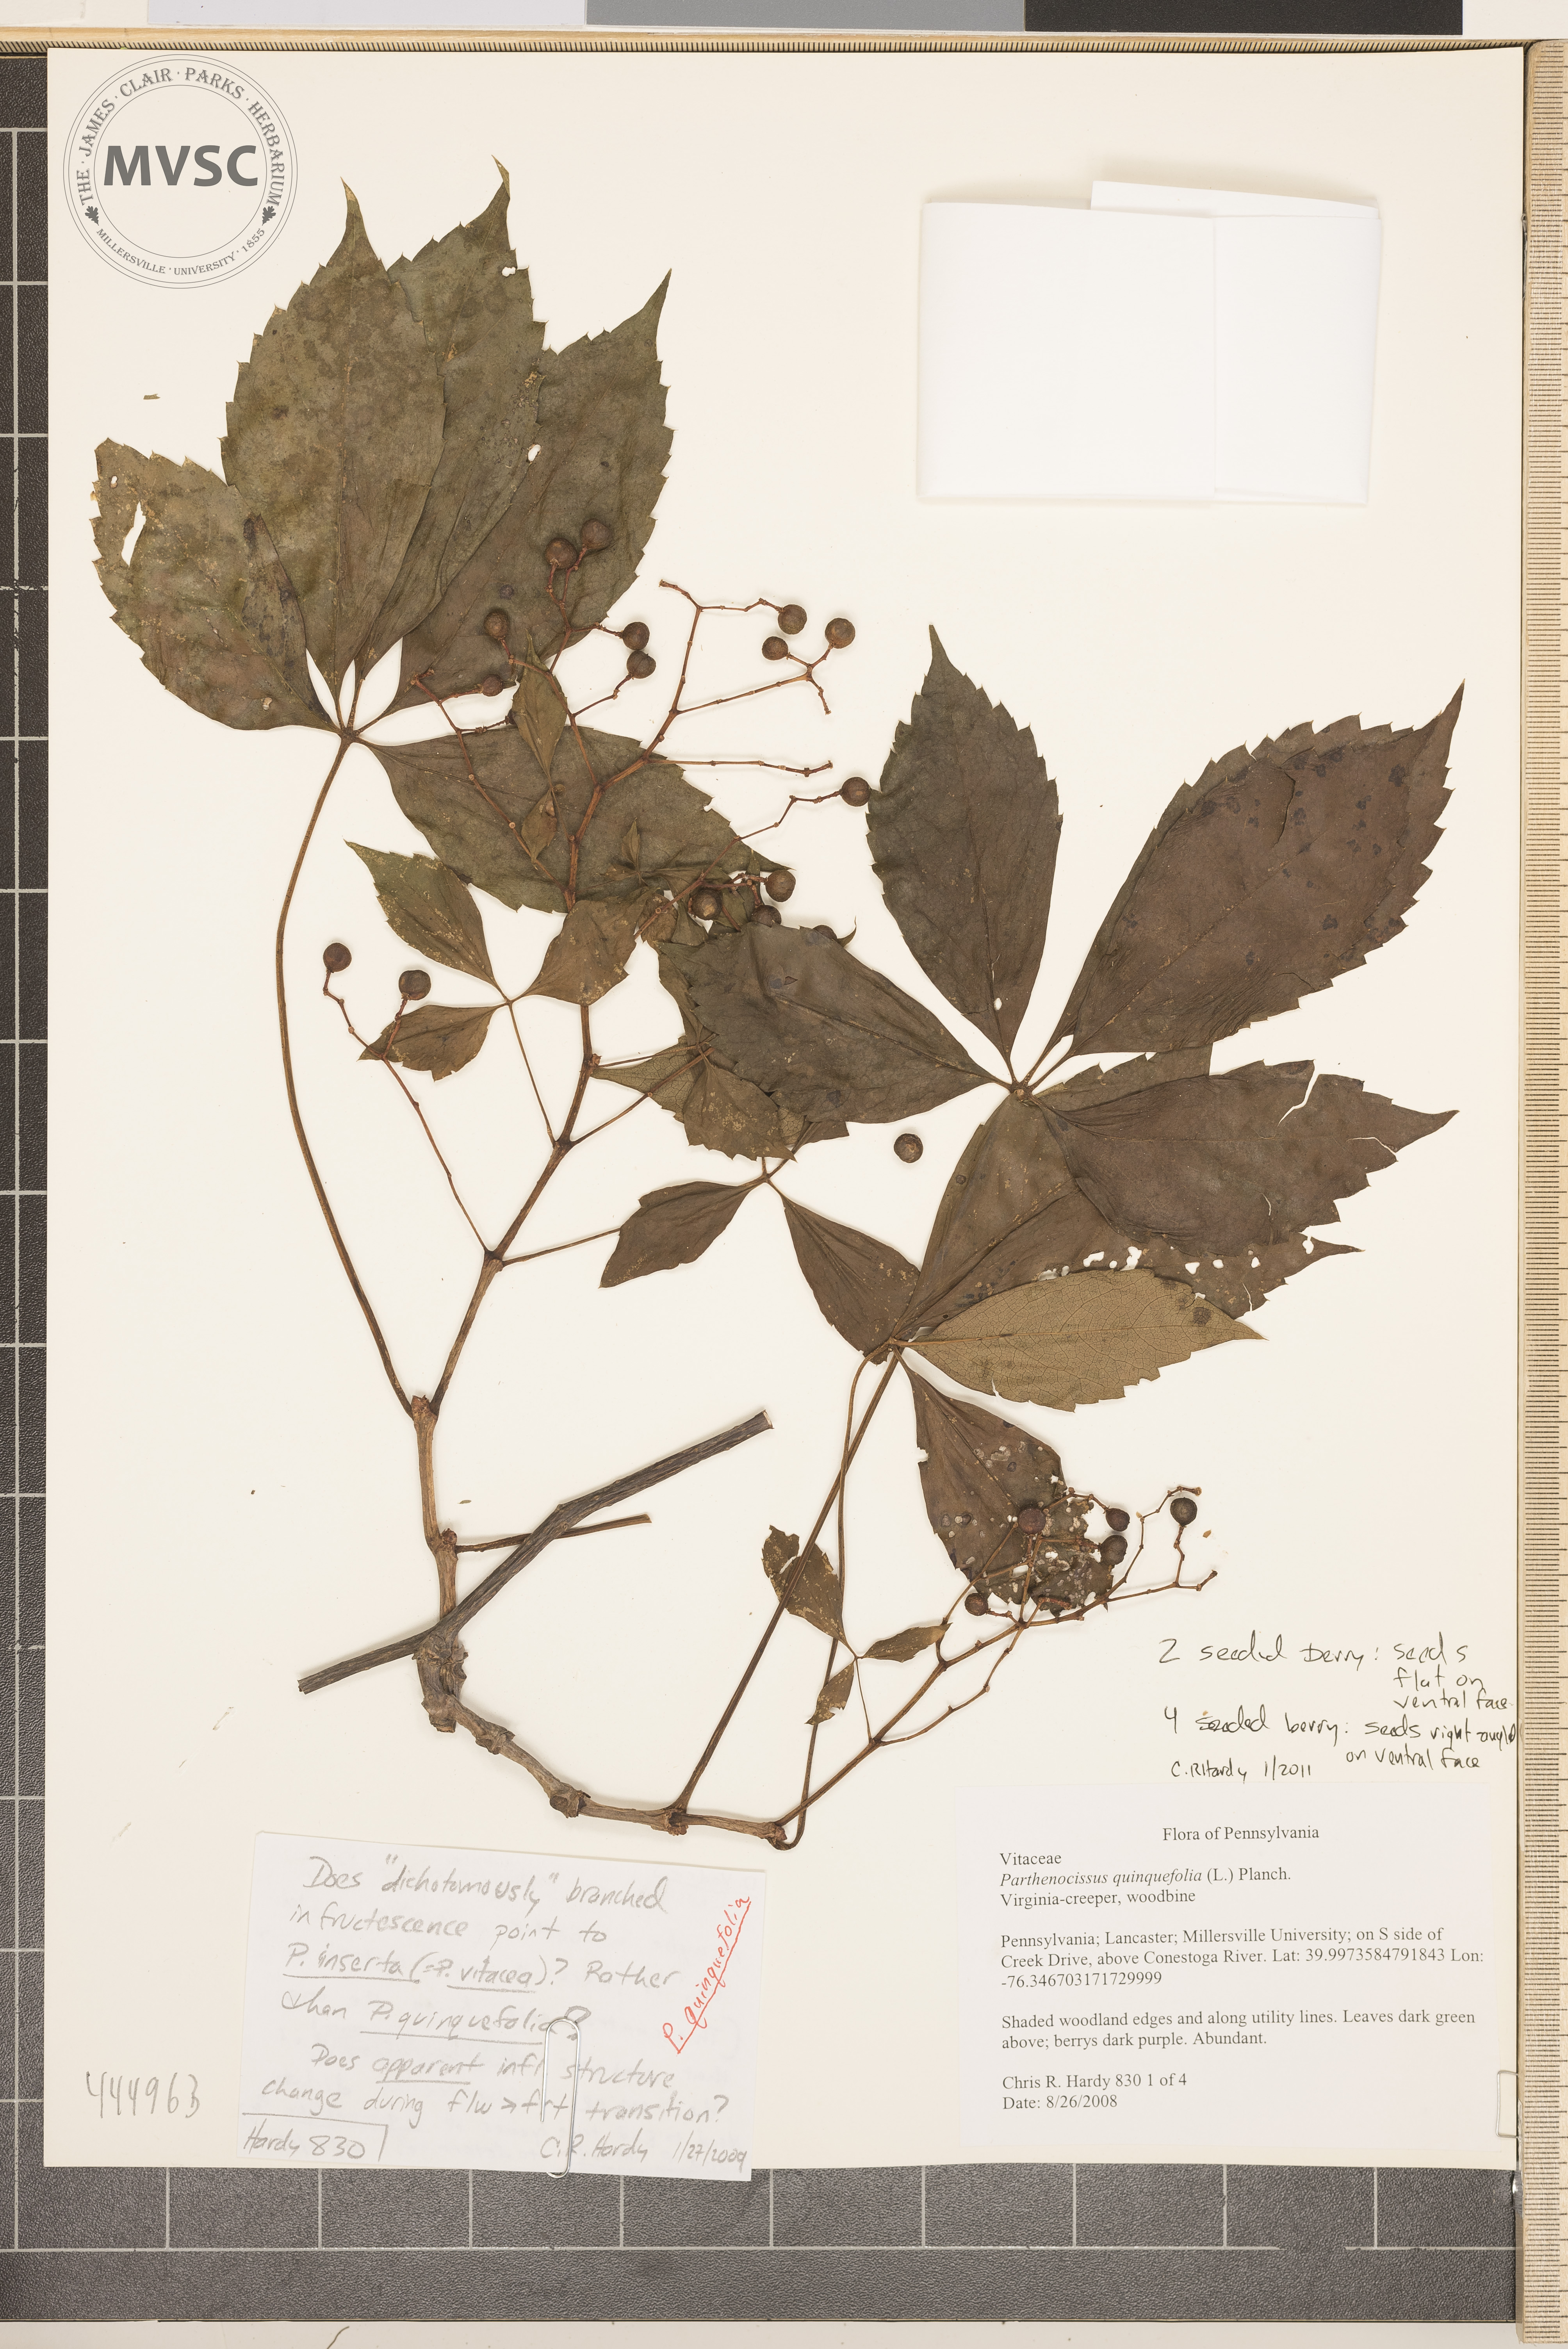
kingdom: Plantae
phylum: Tracheophyta
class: Magnoliopsida
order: Vitales
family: Vitaceae
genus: Parthenocissus
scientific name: Parthenocissus quinquefolia
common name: Virginia creeper
